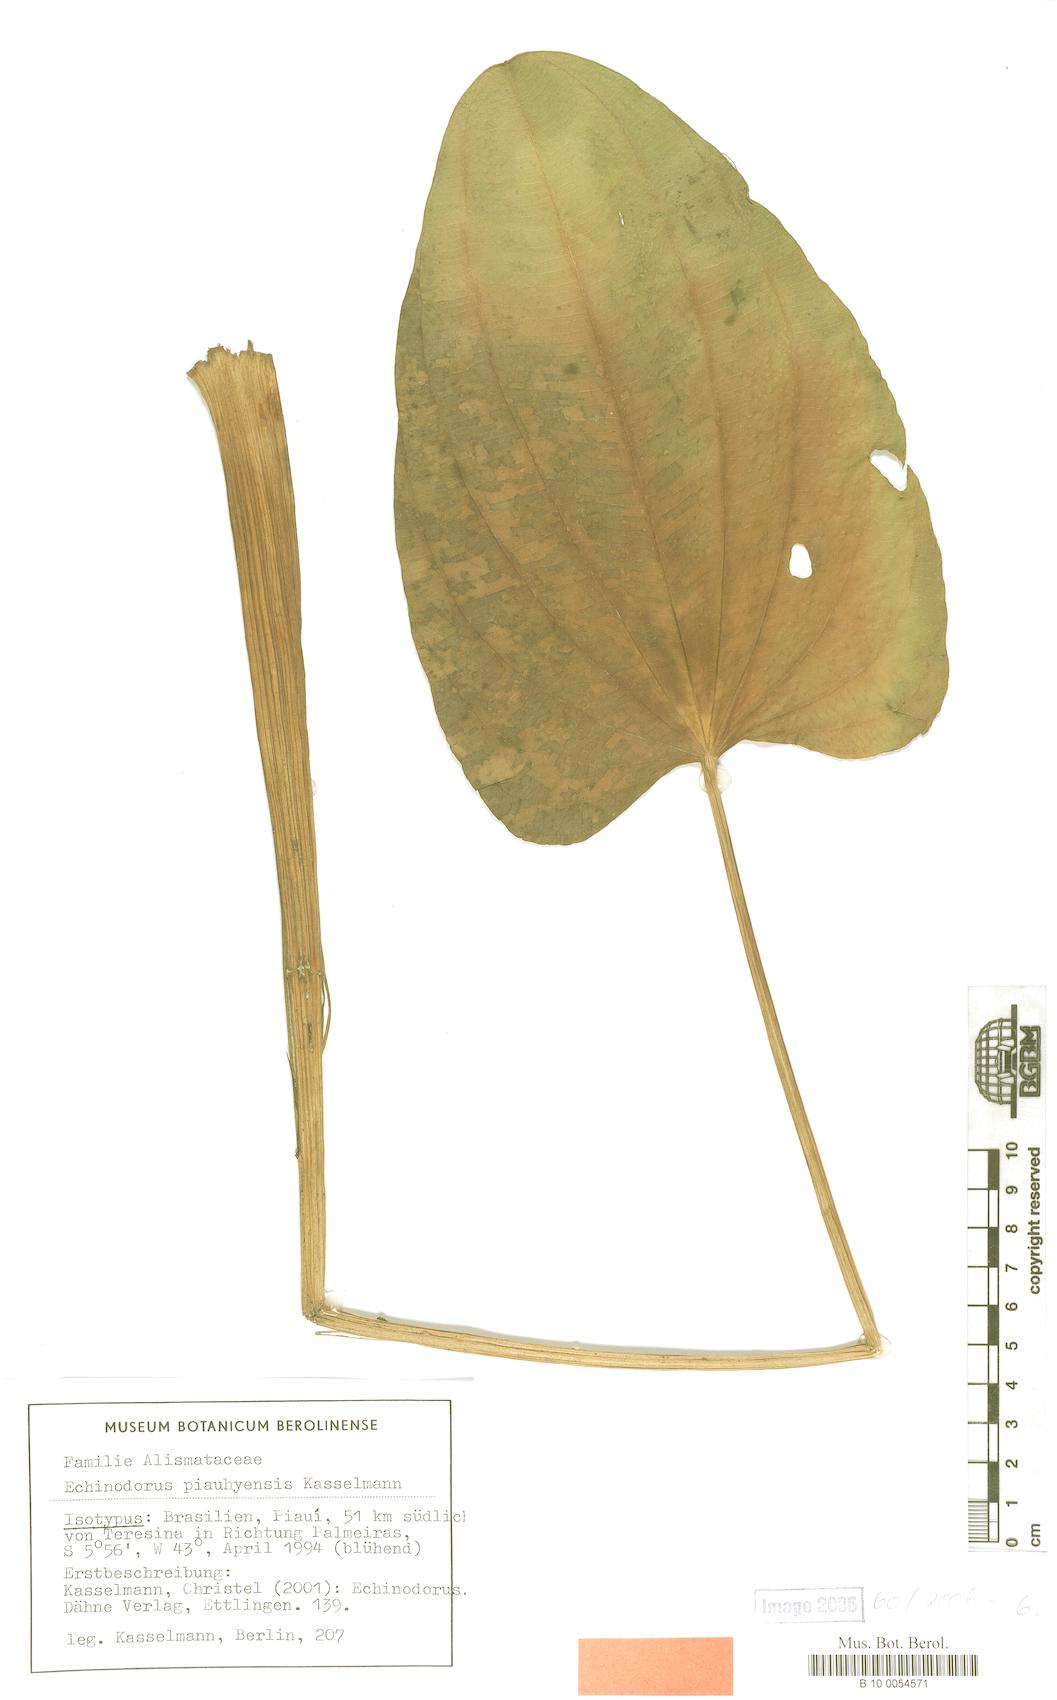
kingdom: Plantae
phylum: Tracheophyta
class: Liliopsida
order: Alismatales
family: Alismataceae
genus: Aquarius
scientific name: Aquarius palifolius
